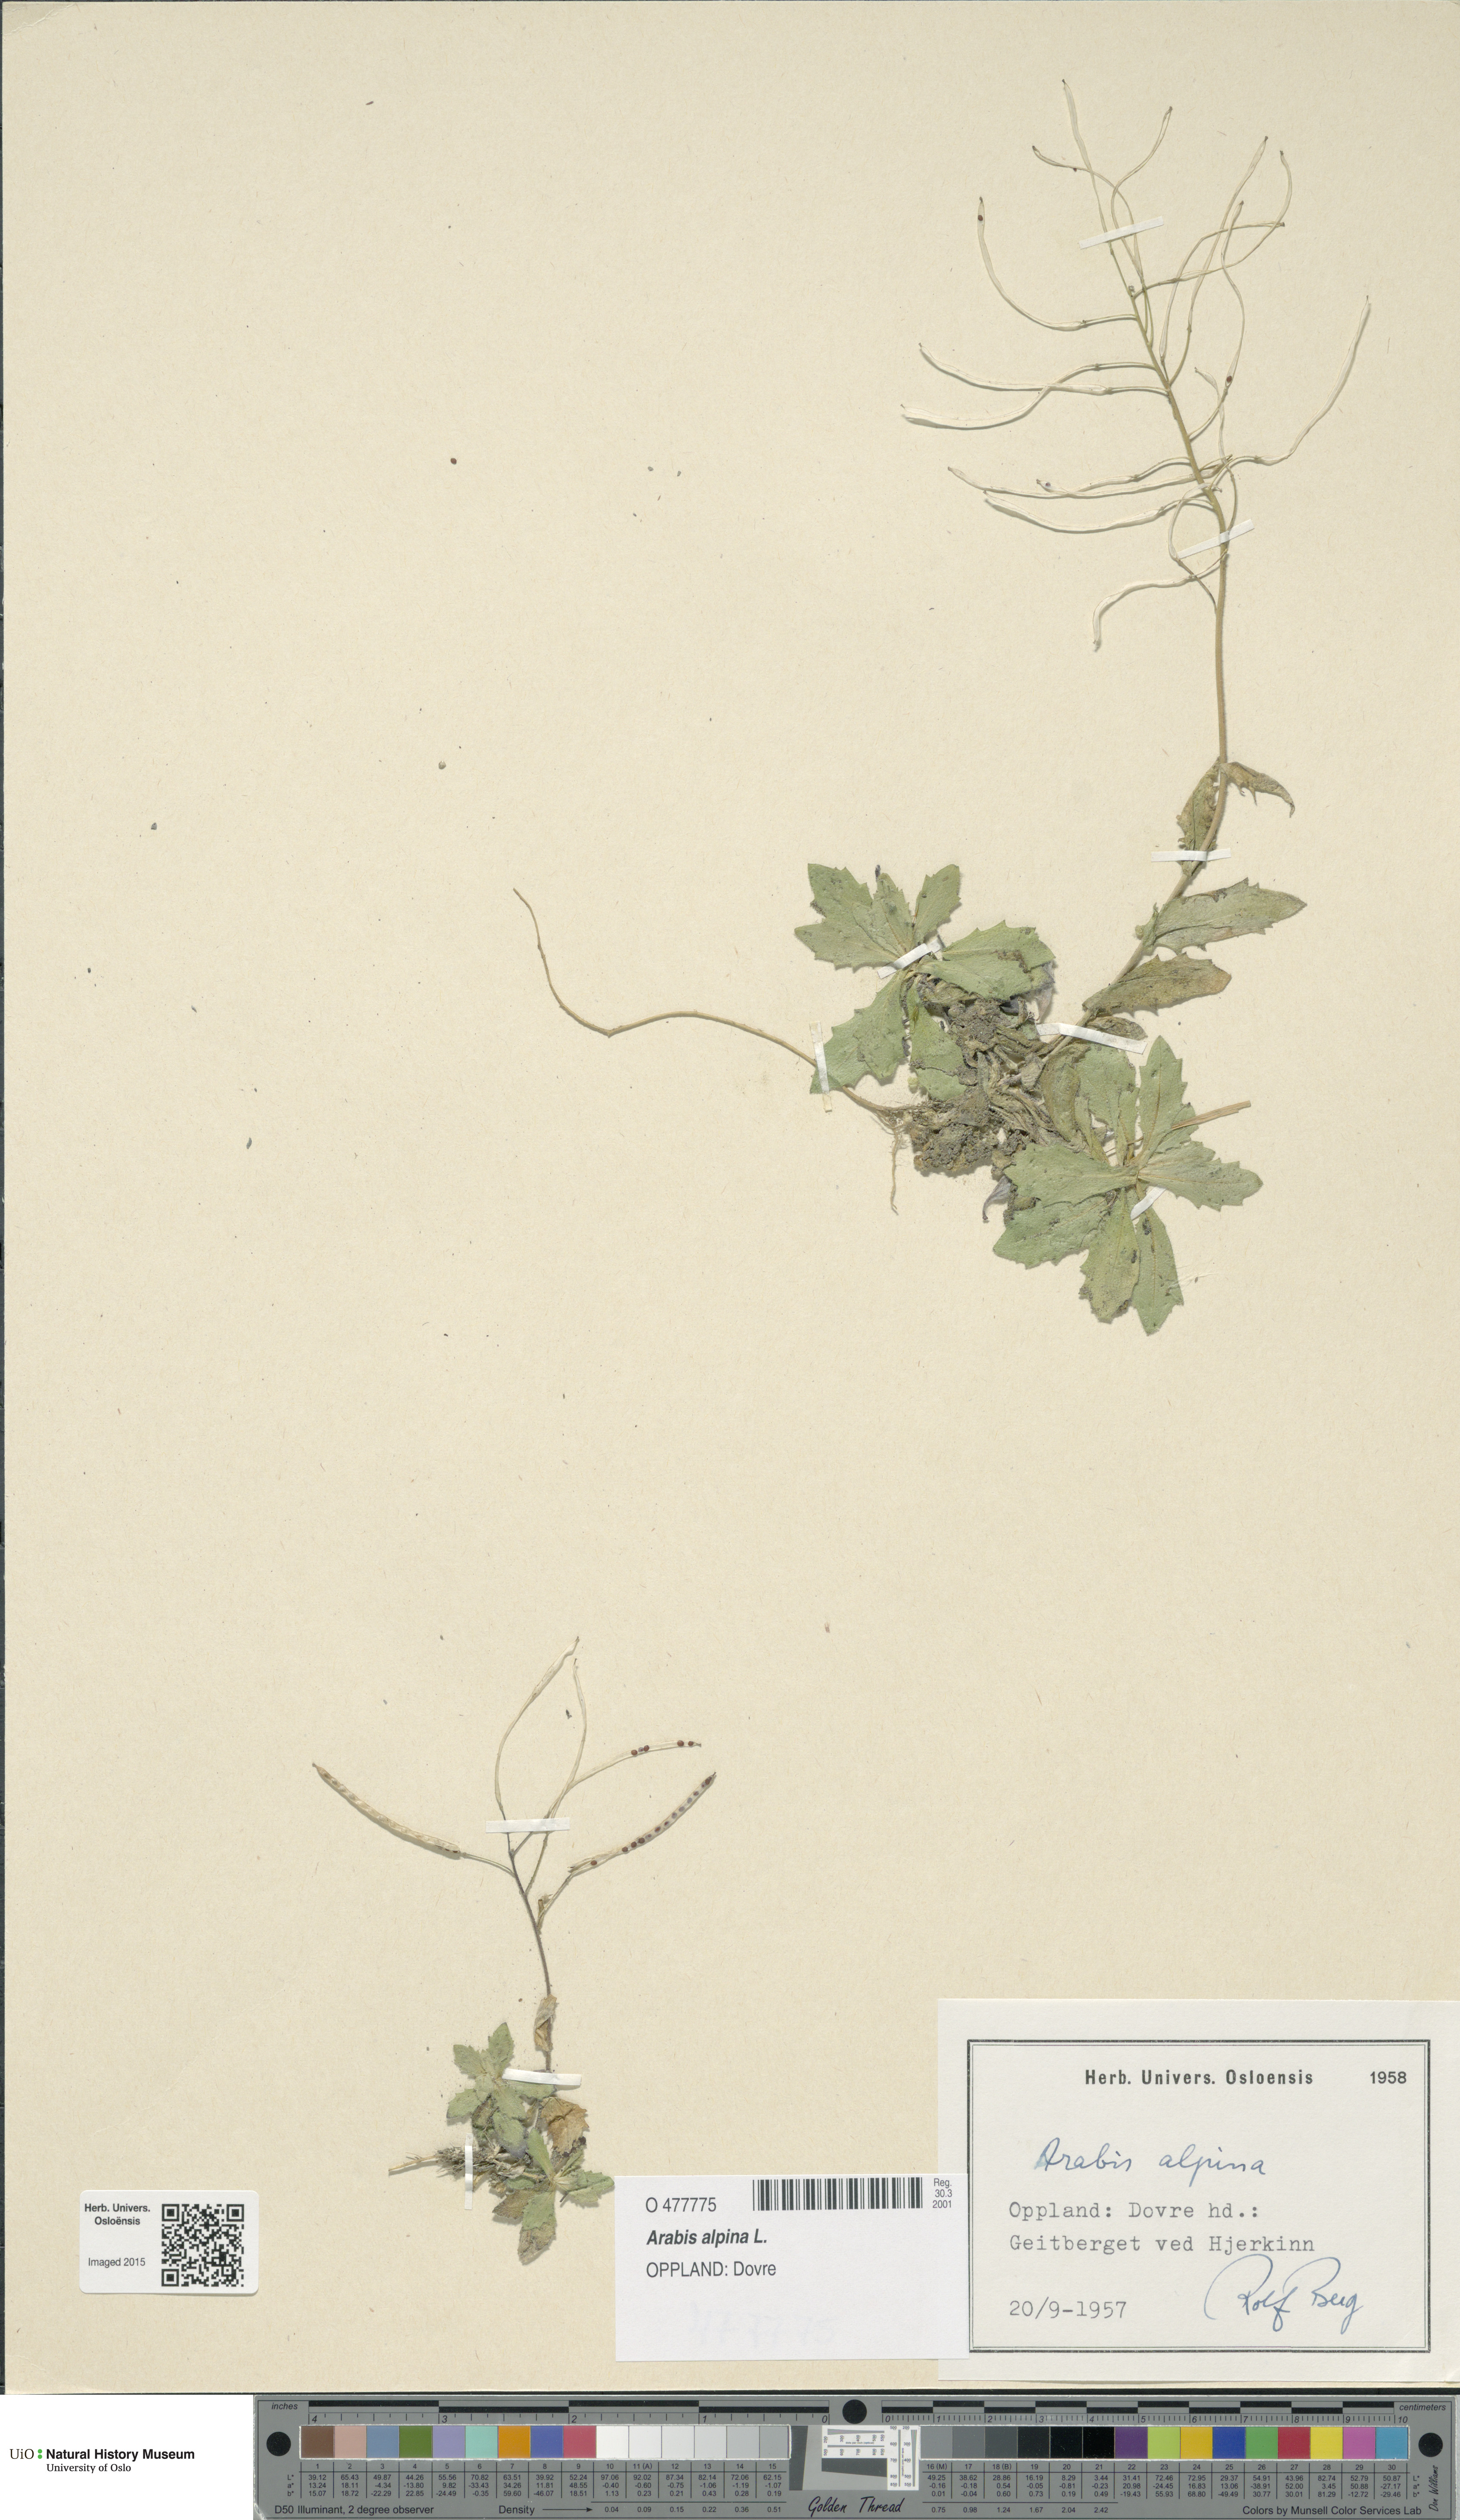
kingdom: Plantae
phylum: Tracheophyta
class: Magnoliopsida
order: Brassicales
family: Brassicaceae
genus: Arabis
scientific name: Arabis alpina
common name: Alpine rock-cress
